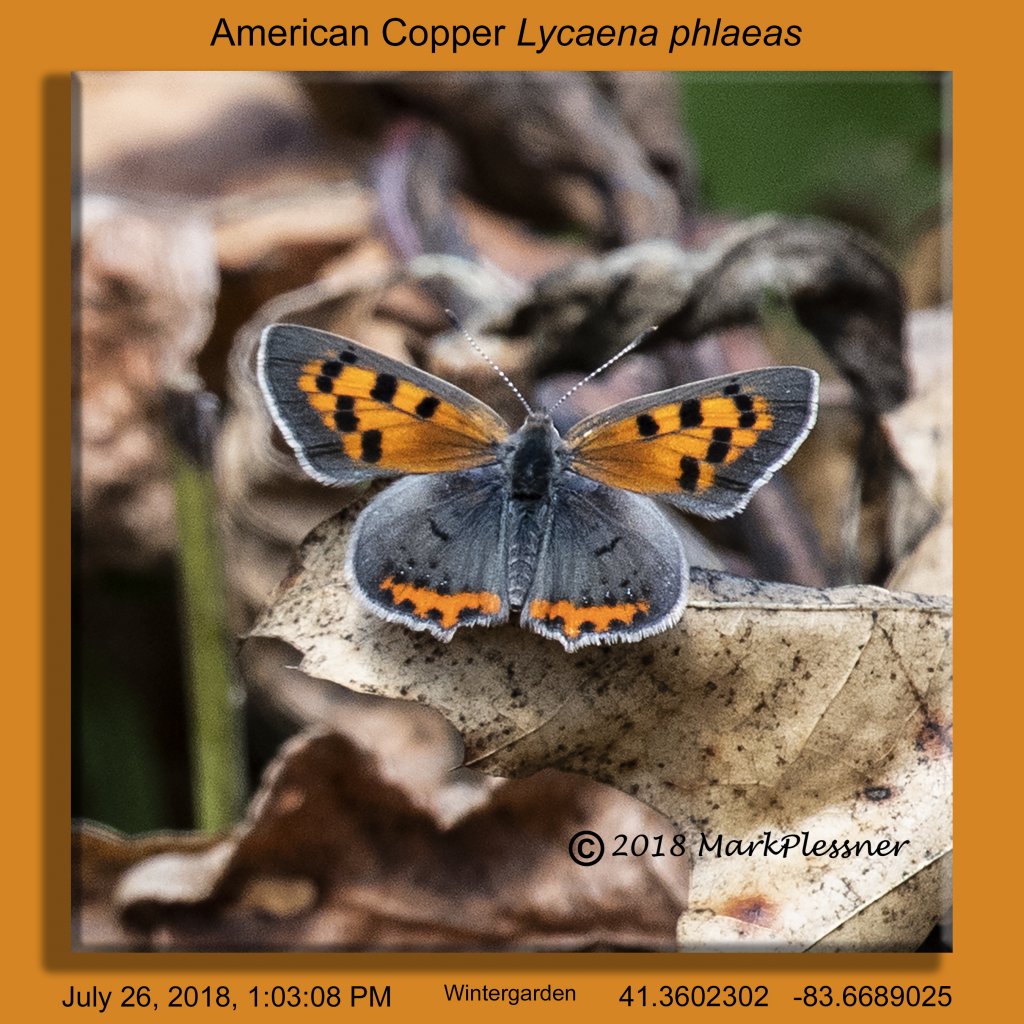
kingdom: Animalia
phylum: Arthropoda
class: Insecta
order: Lepidoptera
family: Lycaenidae
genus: Lycaena
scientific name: Lycaena phlaeas
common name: American Copper
